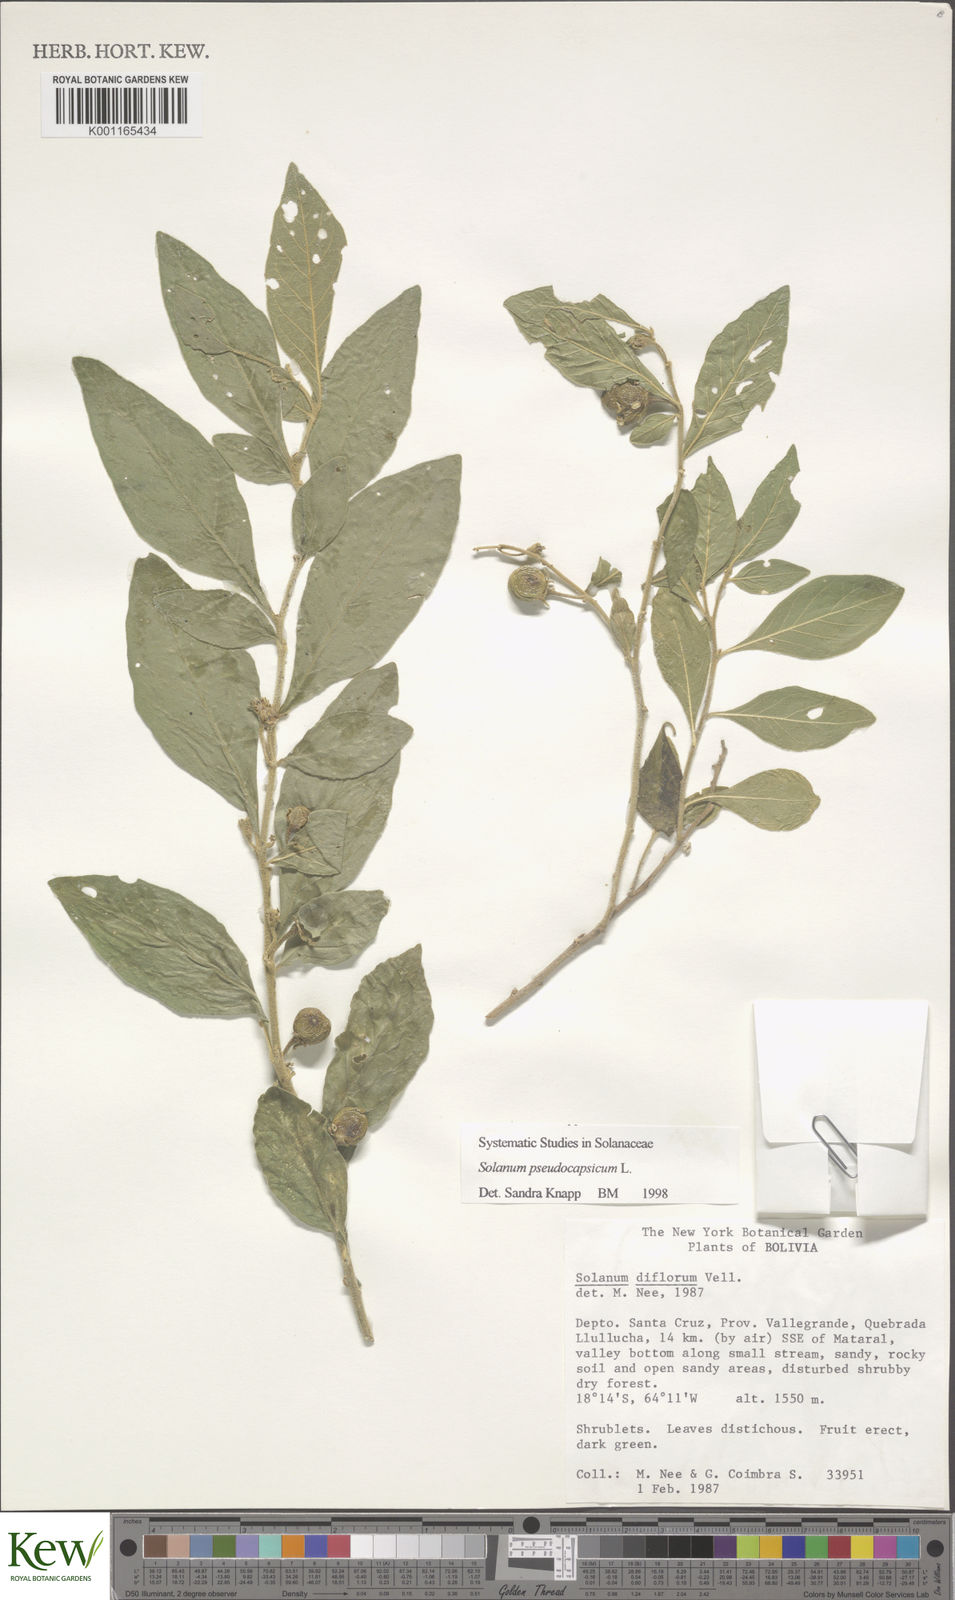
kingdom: Plantae
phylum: Tracheophyta
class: Magnoliopsida
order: Solanales
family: Solanaceae
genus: Solanum
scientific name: Solanum pseudocapsicum
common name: Jerusalem cherry
